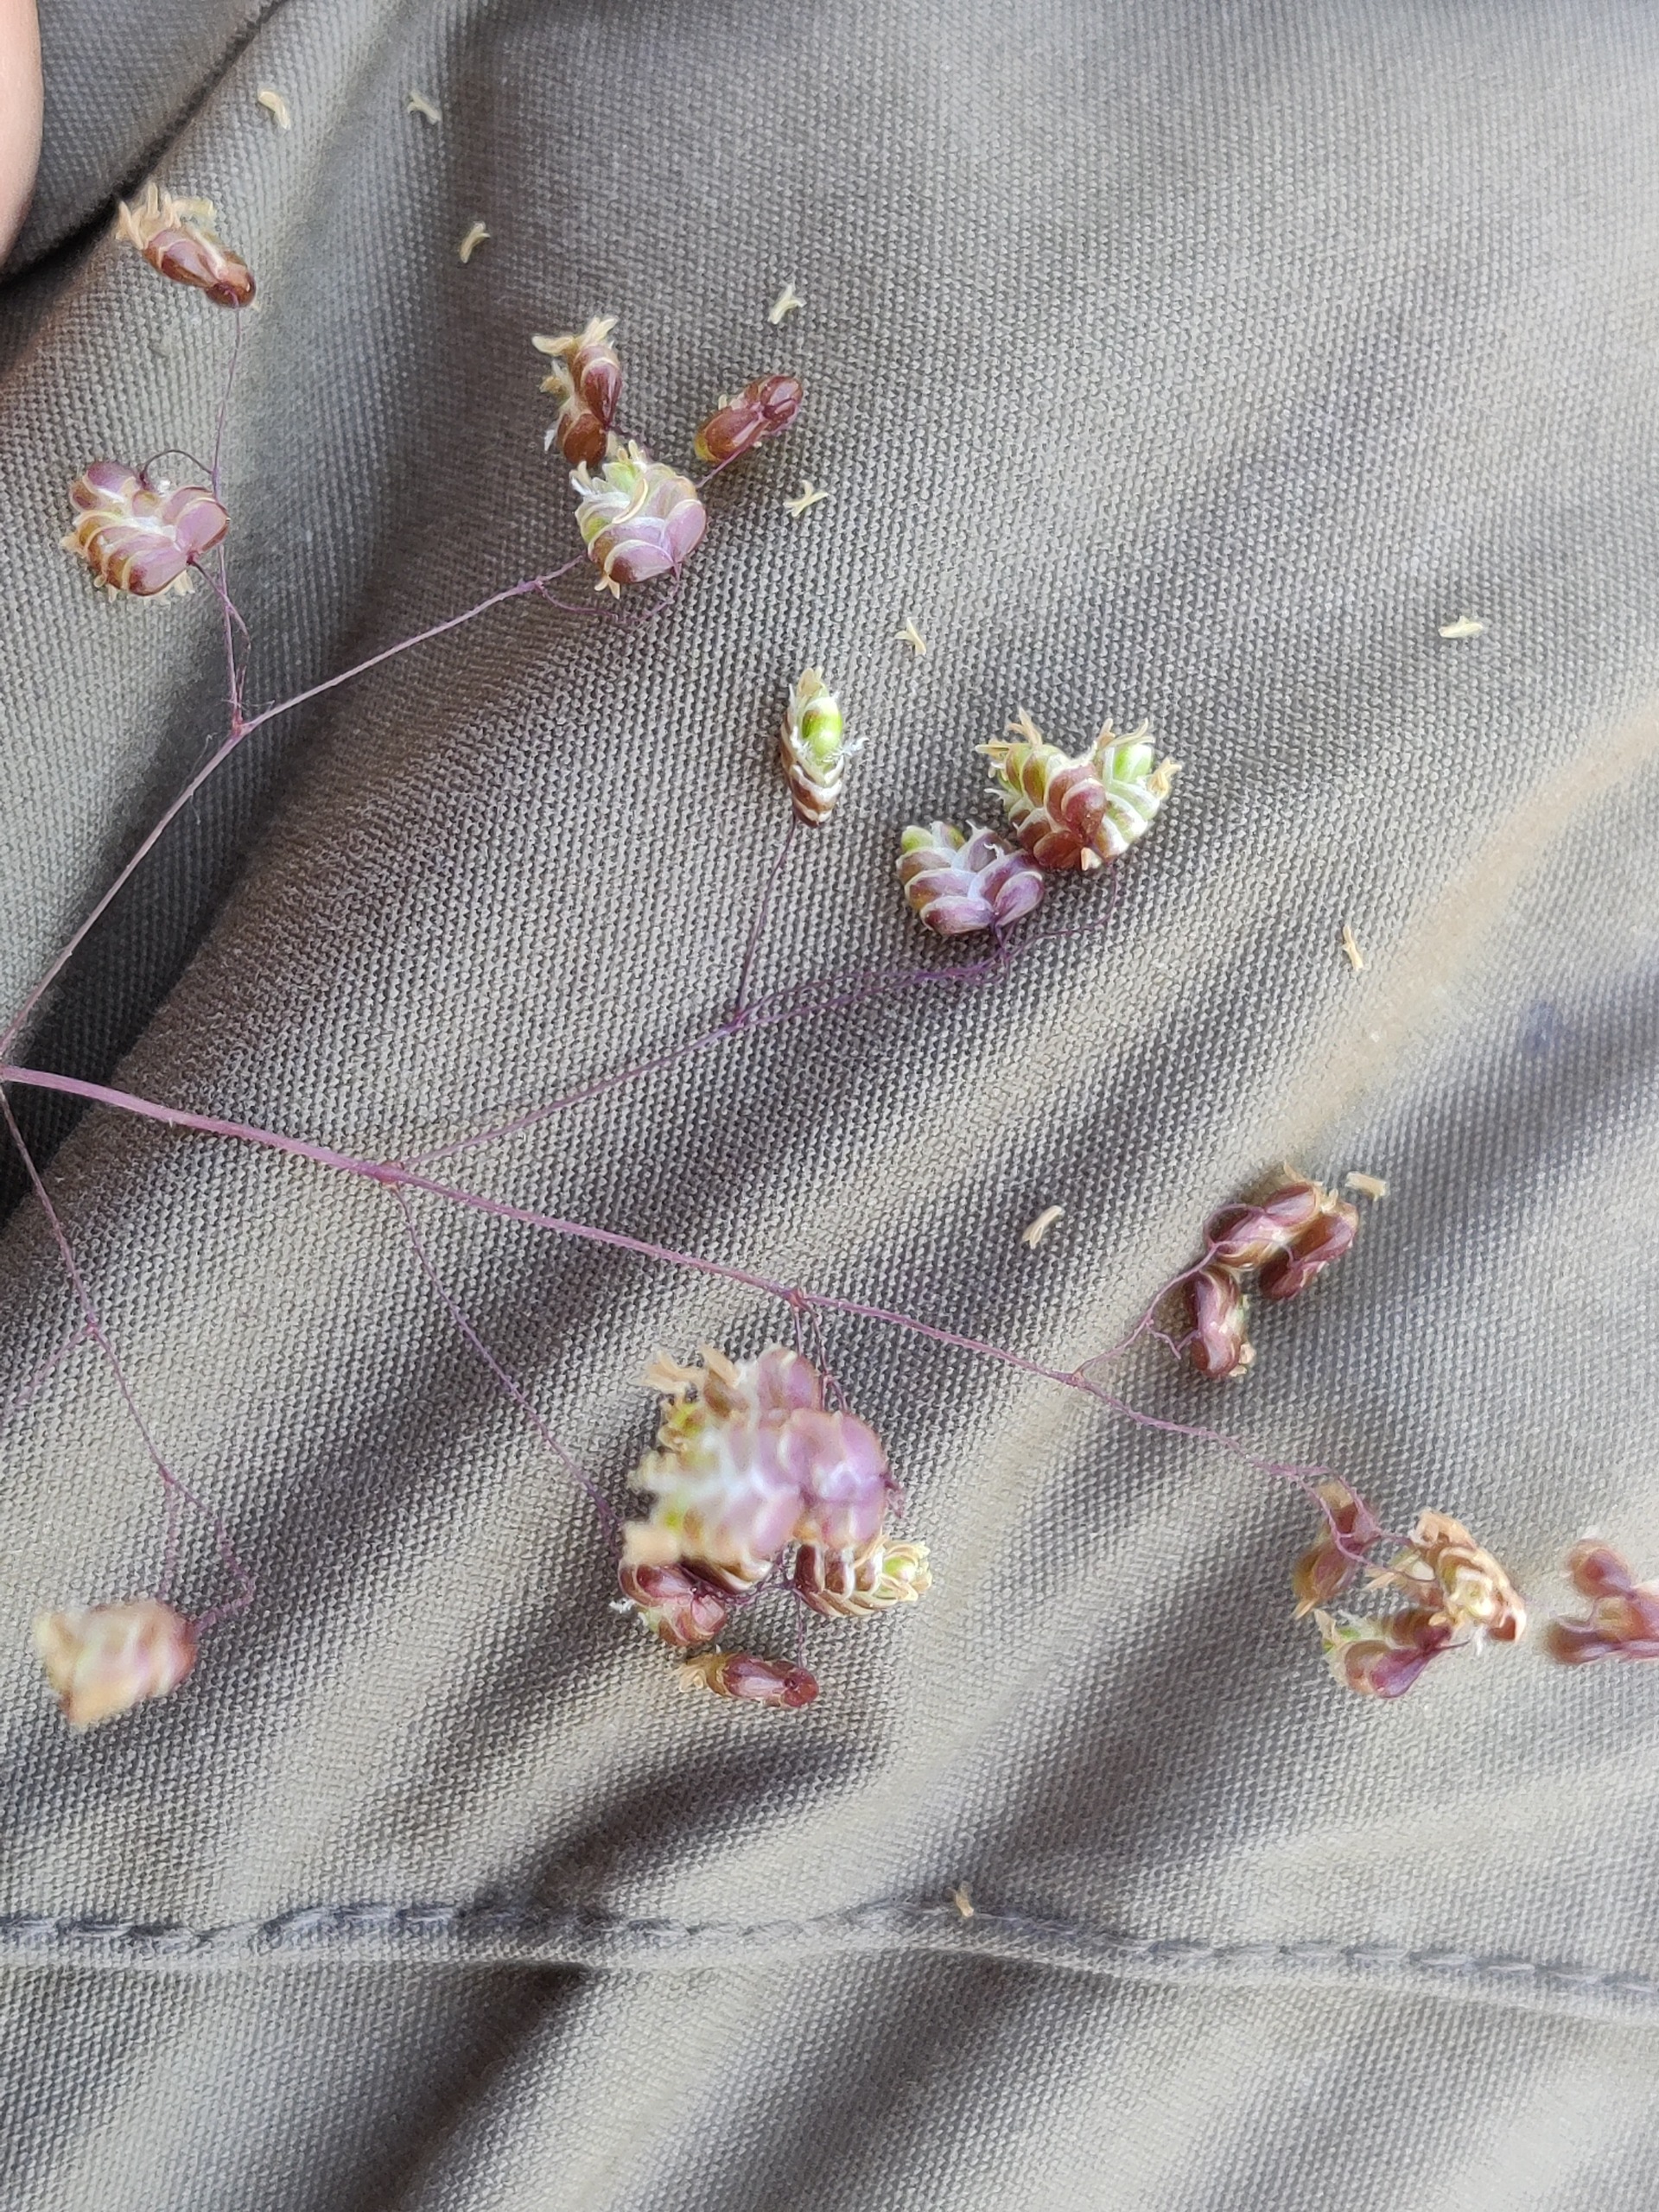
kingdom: Plantae
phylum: Tracheophyta
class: Liliopsida
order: Poales
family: Poaceae
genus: Briza
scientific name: Briza media
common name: Hjertegræs
